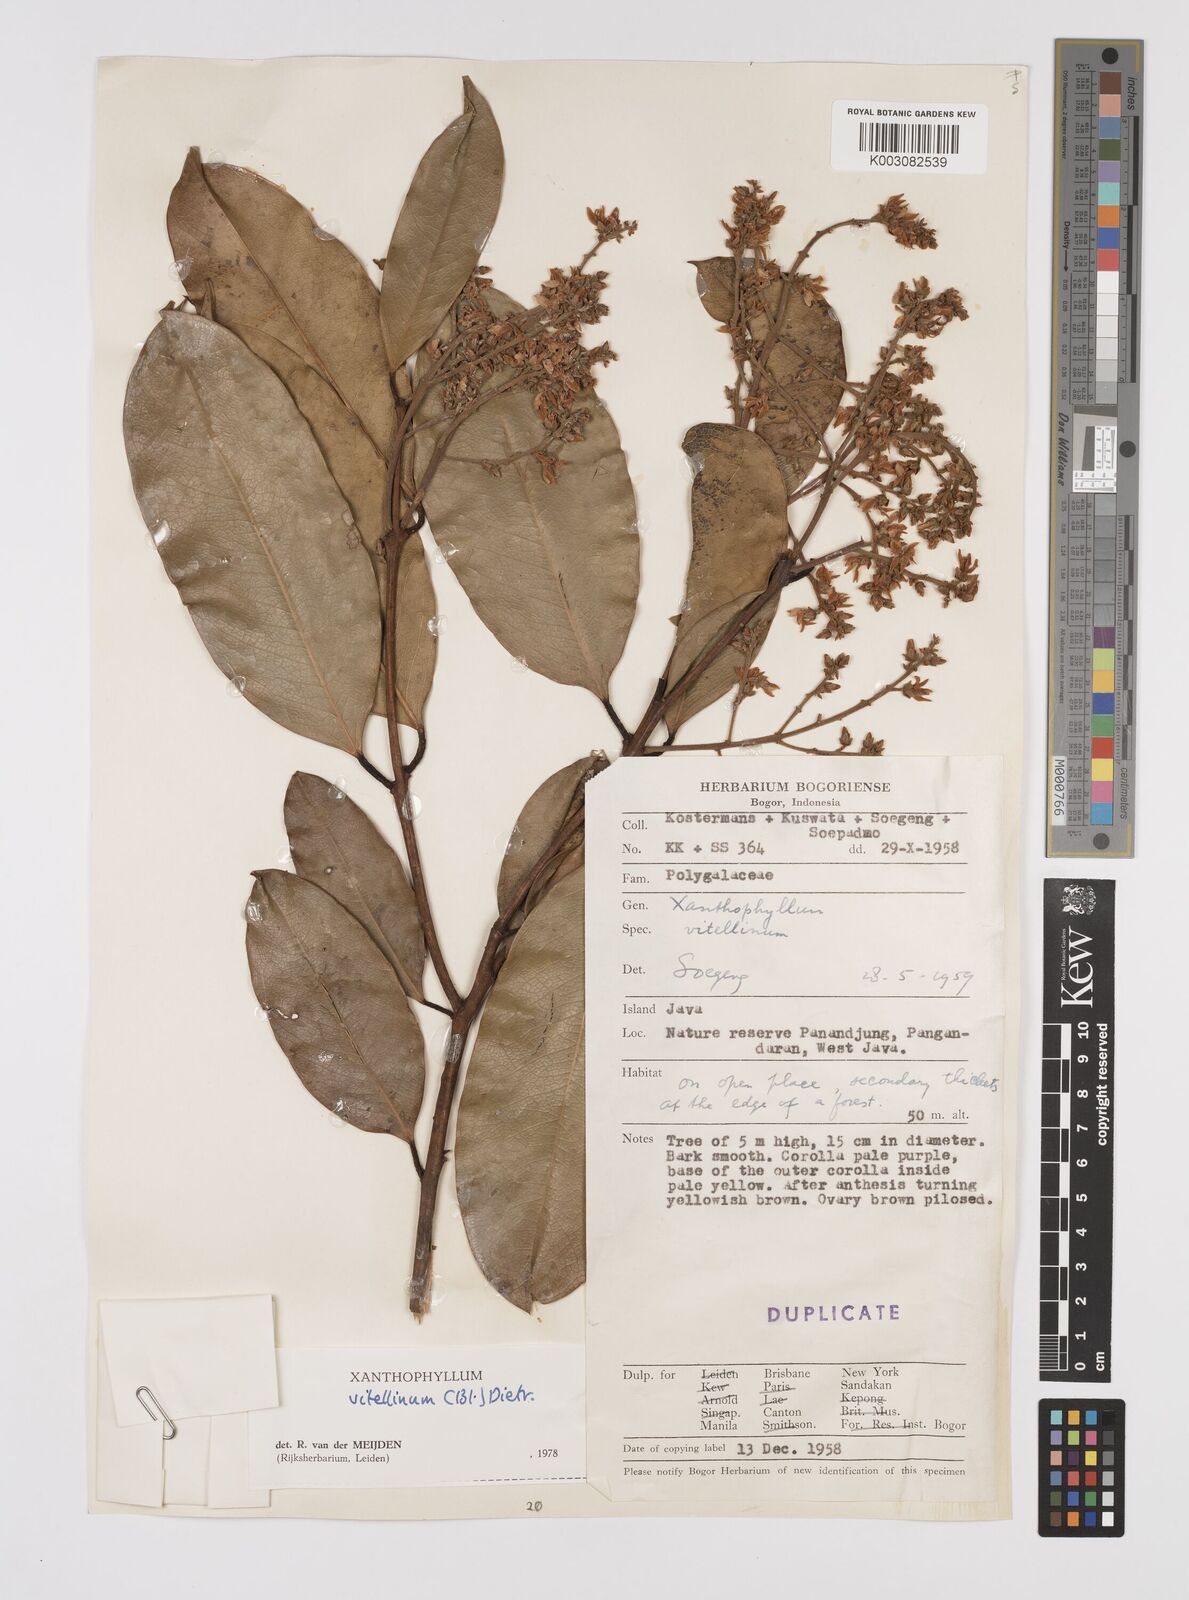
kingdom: Plantae
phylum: Tracheophyta
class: Magnoliopsida
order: Fabales
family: Polygalaceae
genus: Xanthophyllum
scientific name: Xanthophyllum vitellinum
